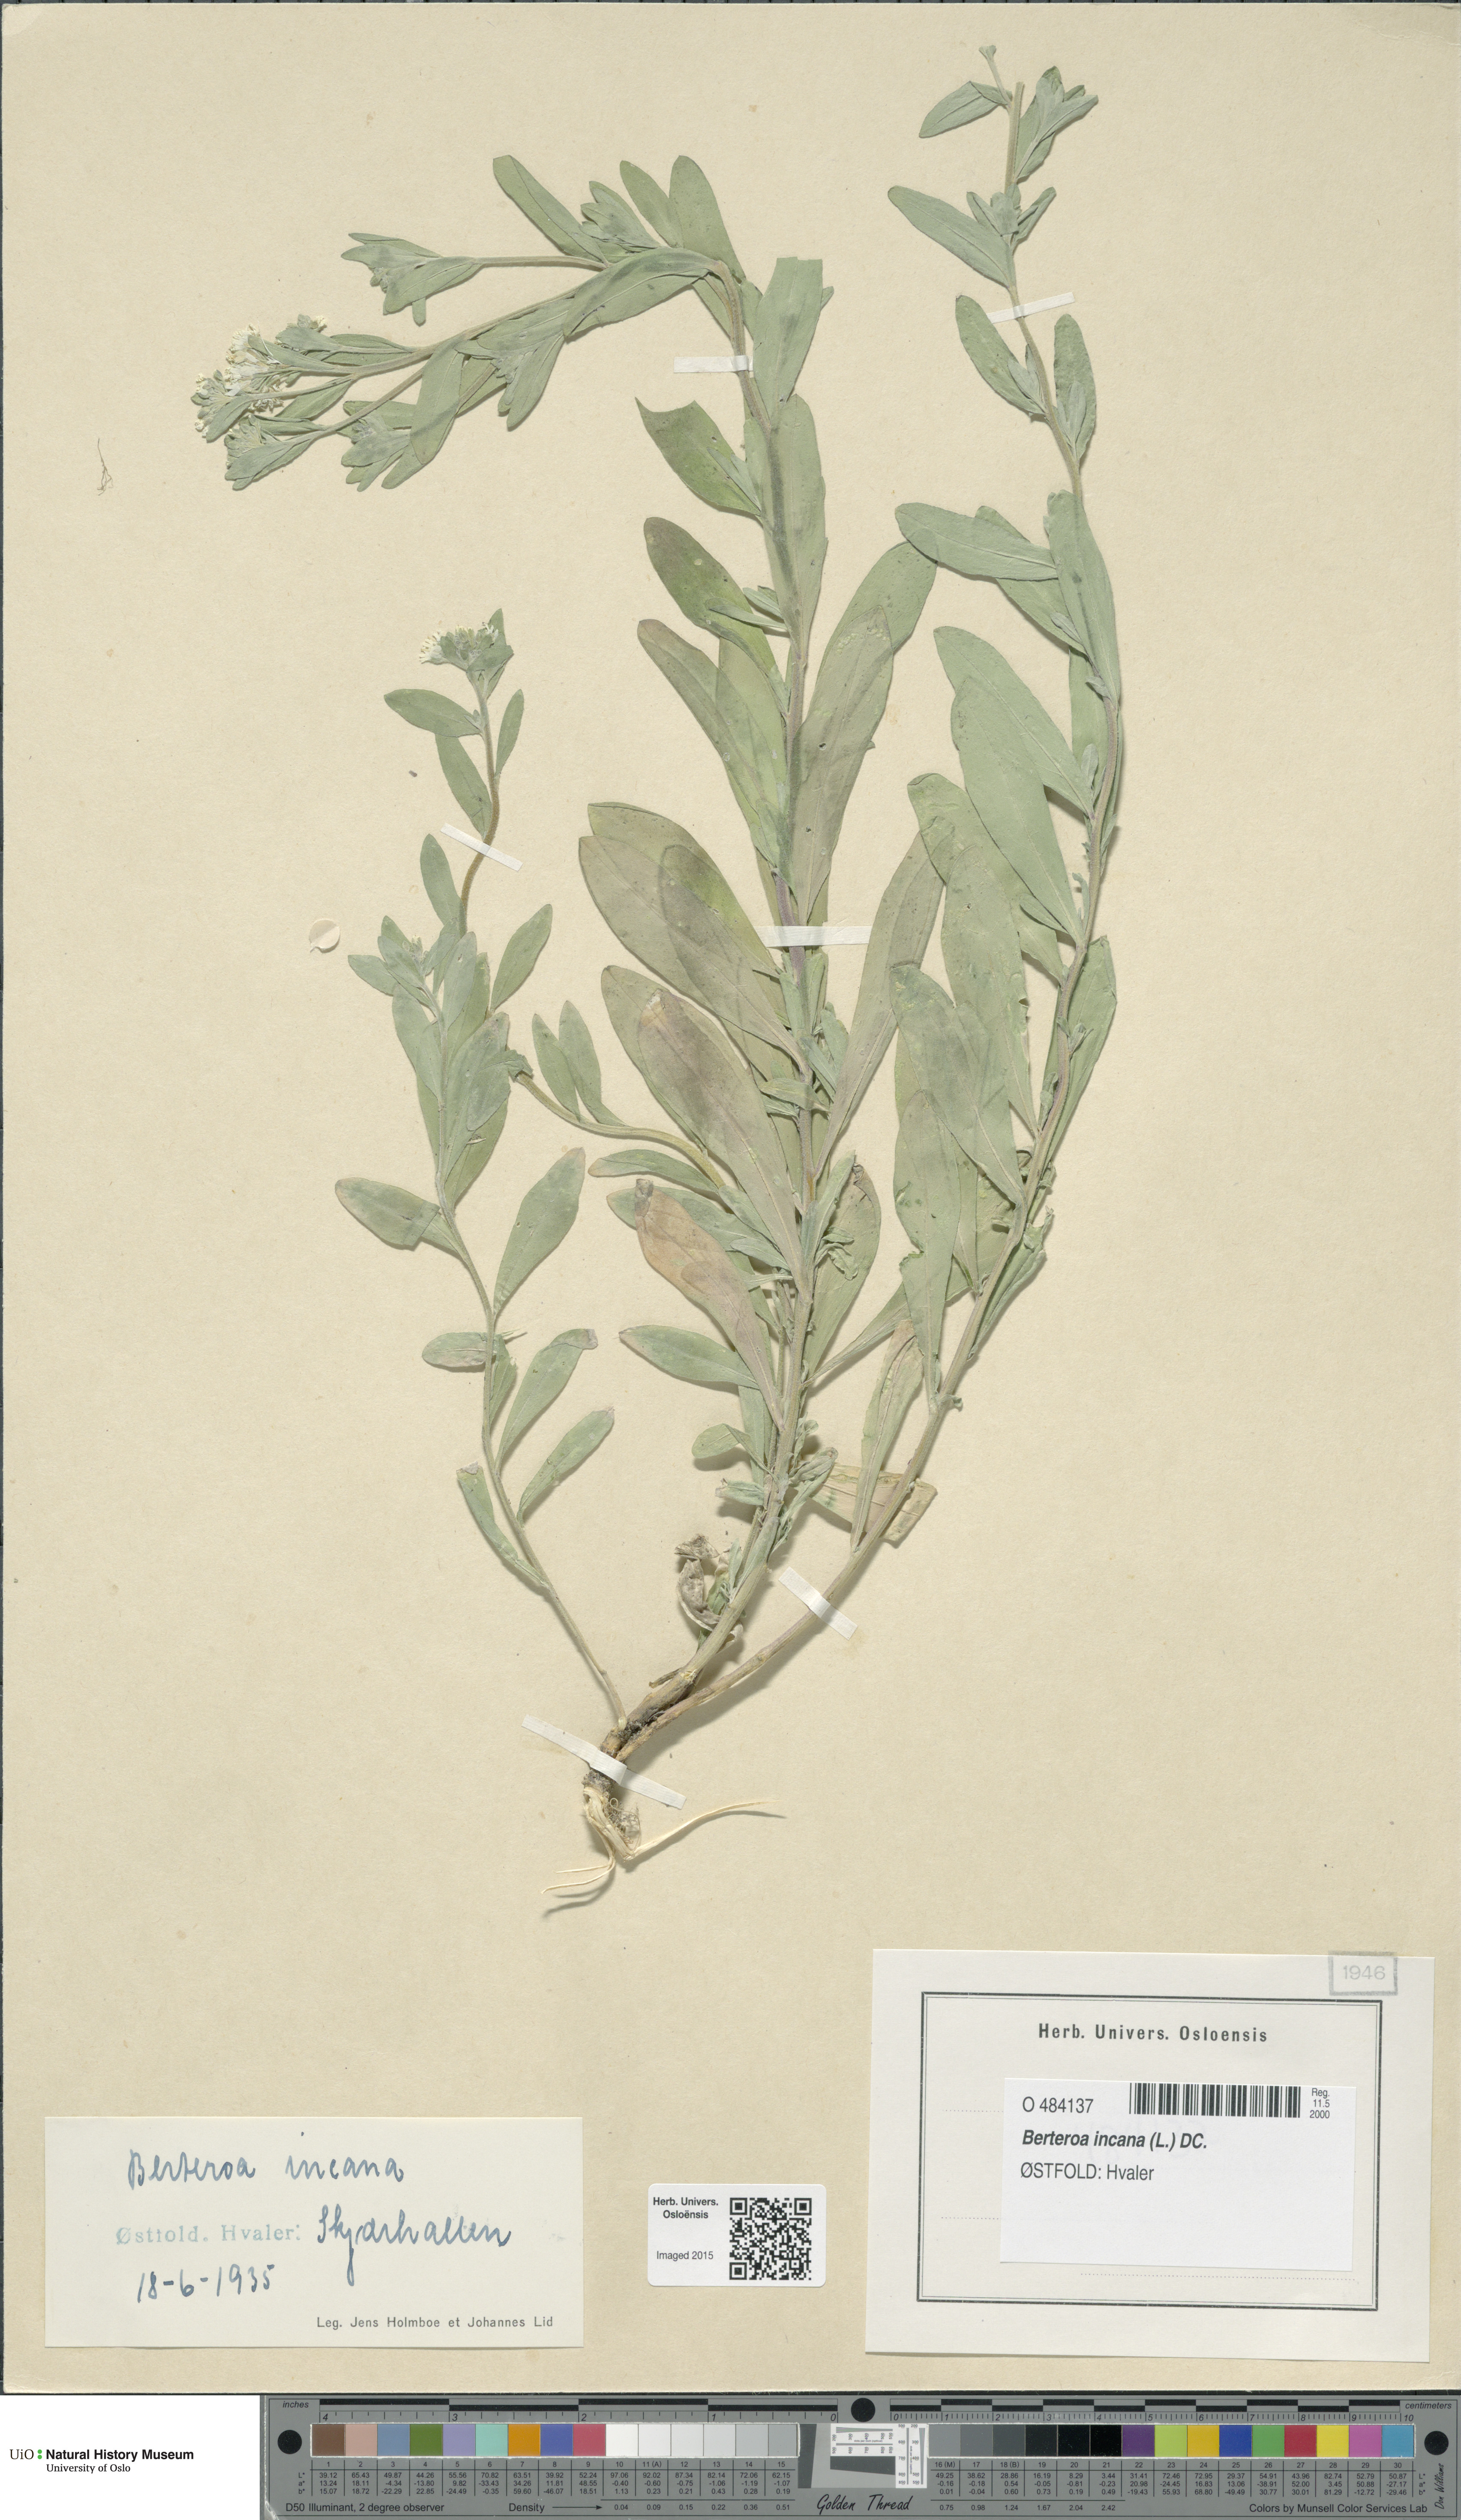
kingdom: Plantae
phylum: Tracheophyta
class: Magnoliopsida
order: Brassicales
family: Brassicaceae
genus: Berteroa
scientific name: Berteroa incana
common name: Hoary alison
